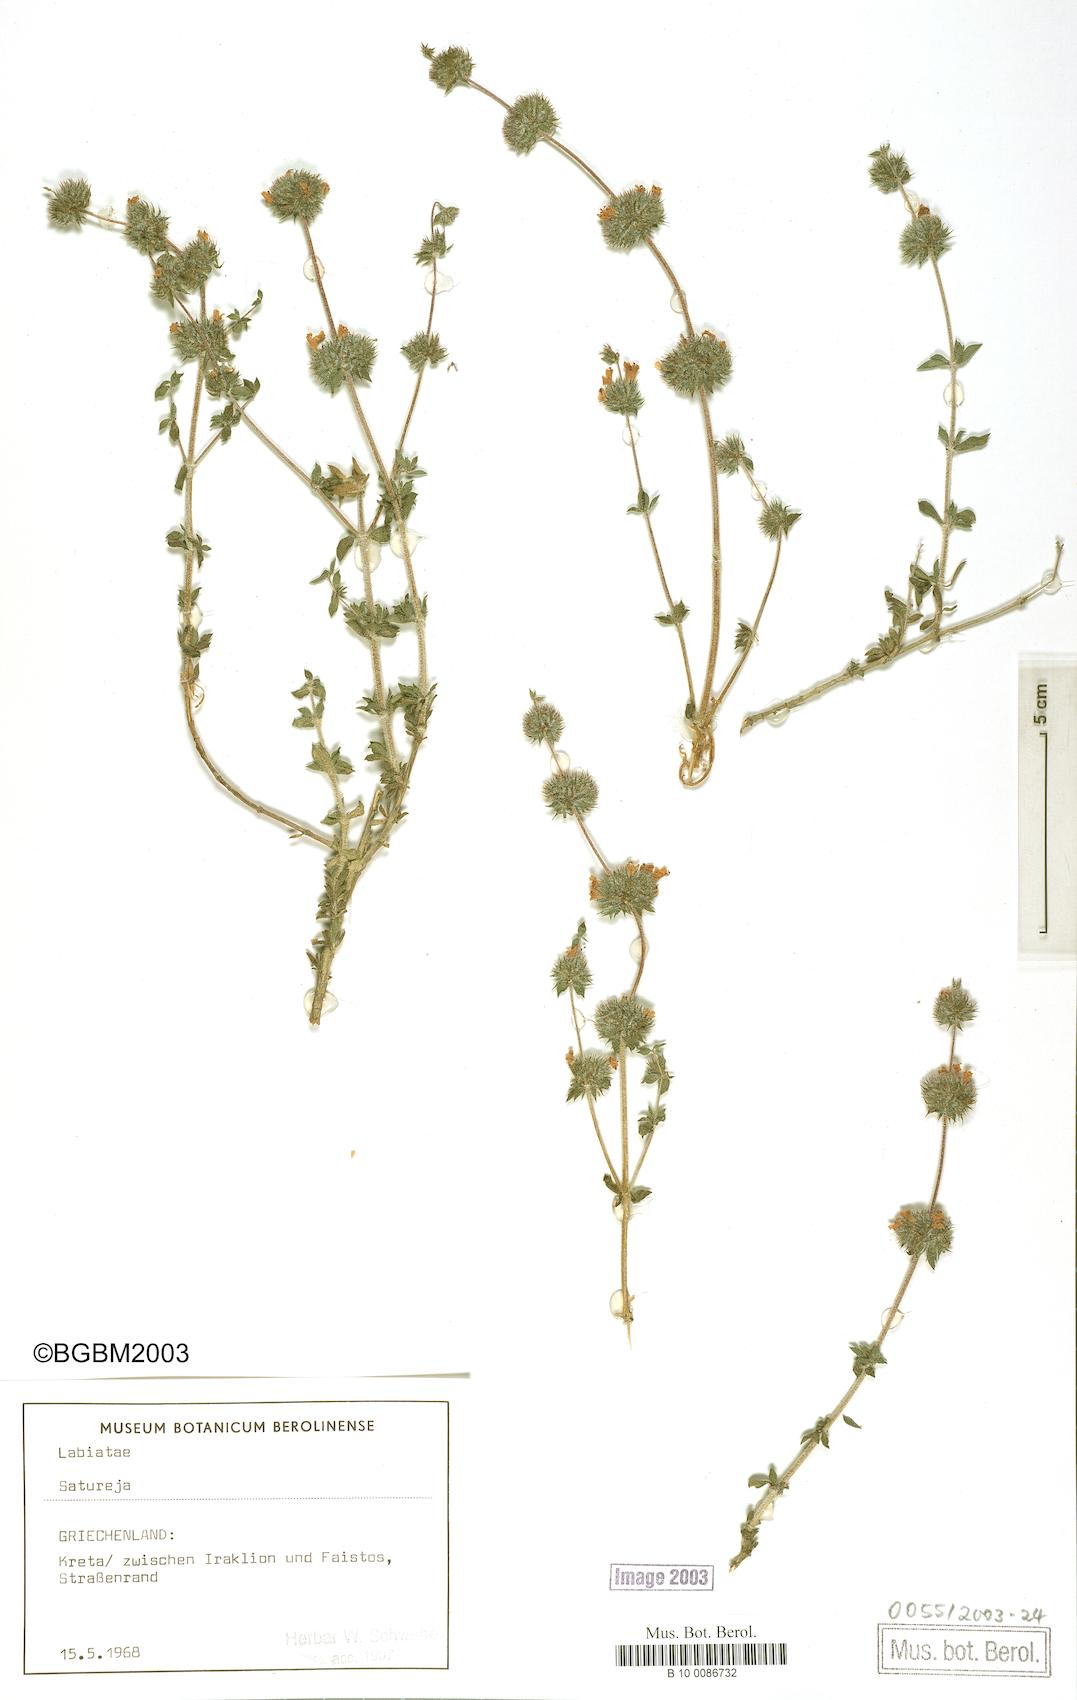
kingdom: Plantae
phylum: Tracheophyta
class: Magnoliopsida
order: Lamiales
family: Lamiaceae
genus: Satureja
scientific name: Satureja
